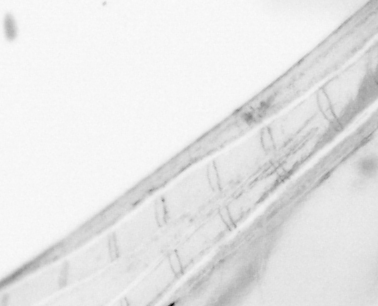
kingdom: Animalia
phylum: Chordata
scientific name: Chordata
